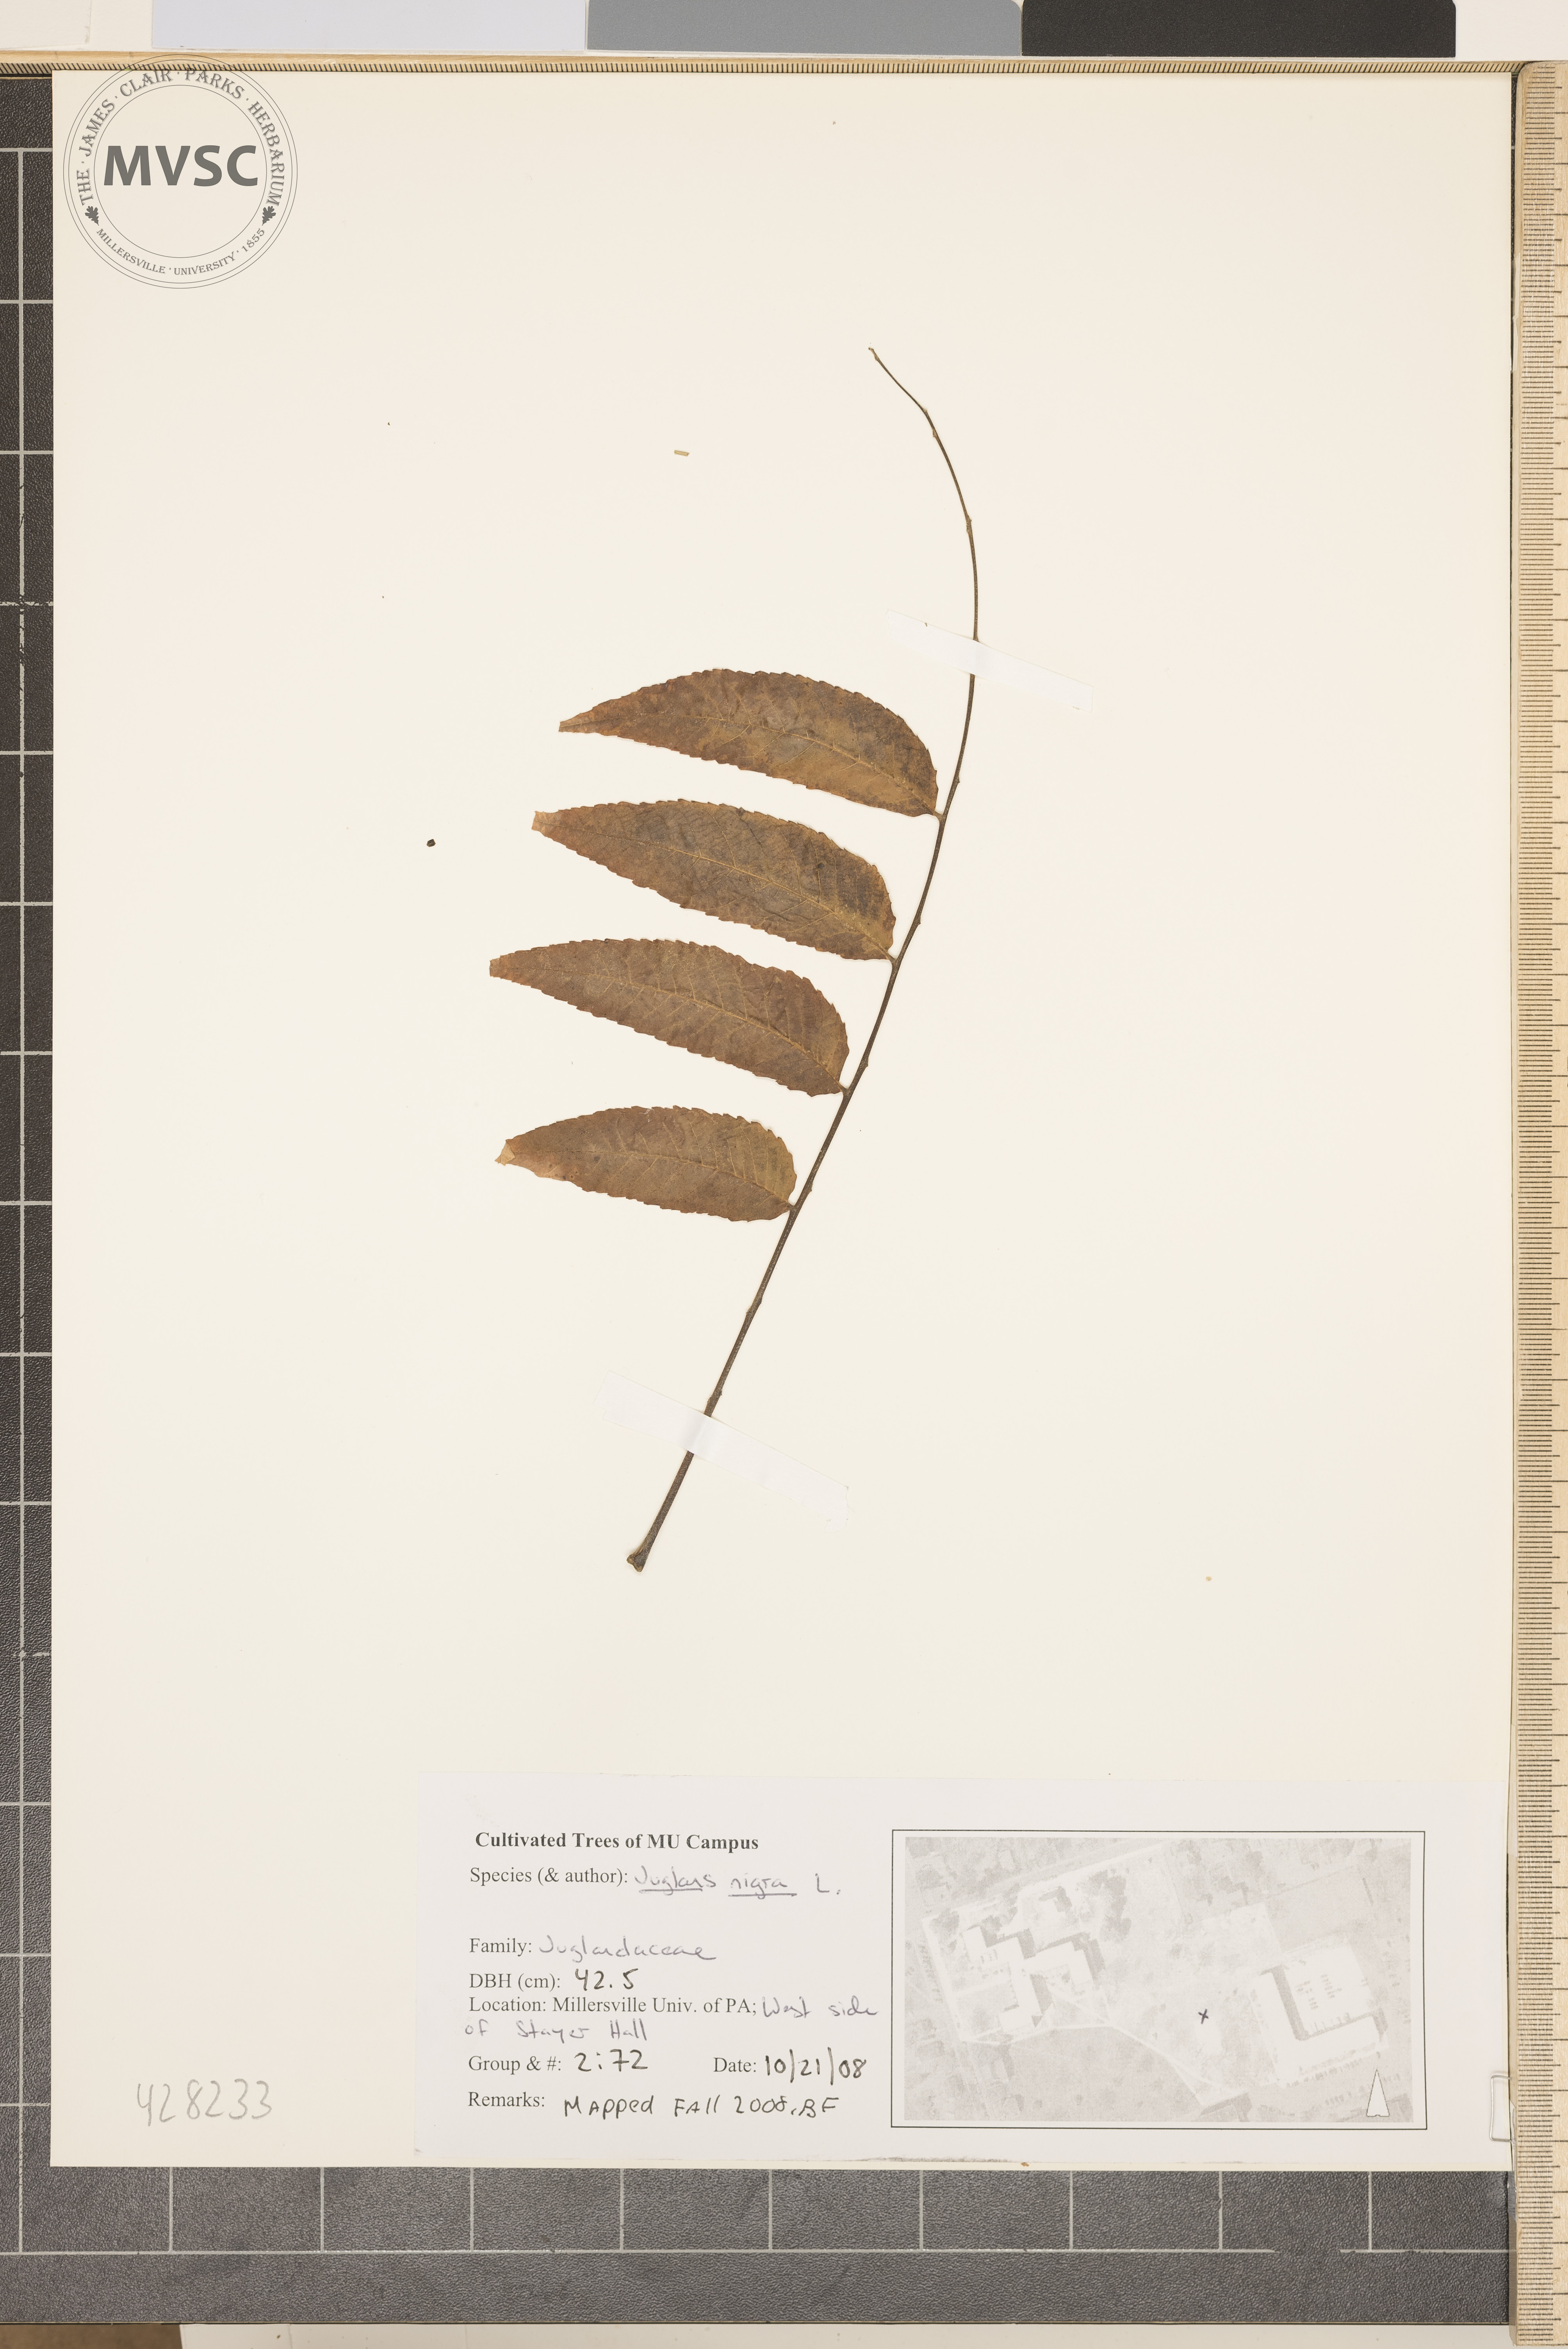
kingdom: Plantae
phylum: Tracheophyta
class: Magnoliopsida
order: Fagales
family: Juglandaceae
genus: Juglans
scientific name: Juglans nigra
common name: Black walnut
